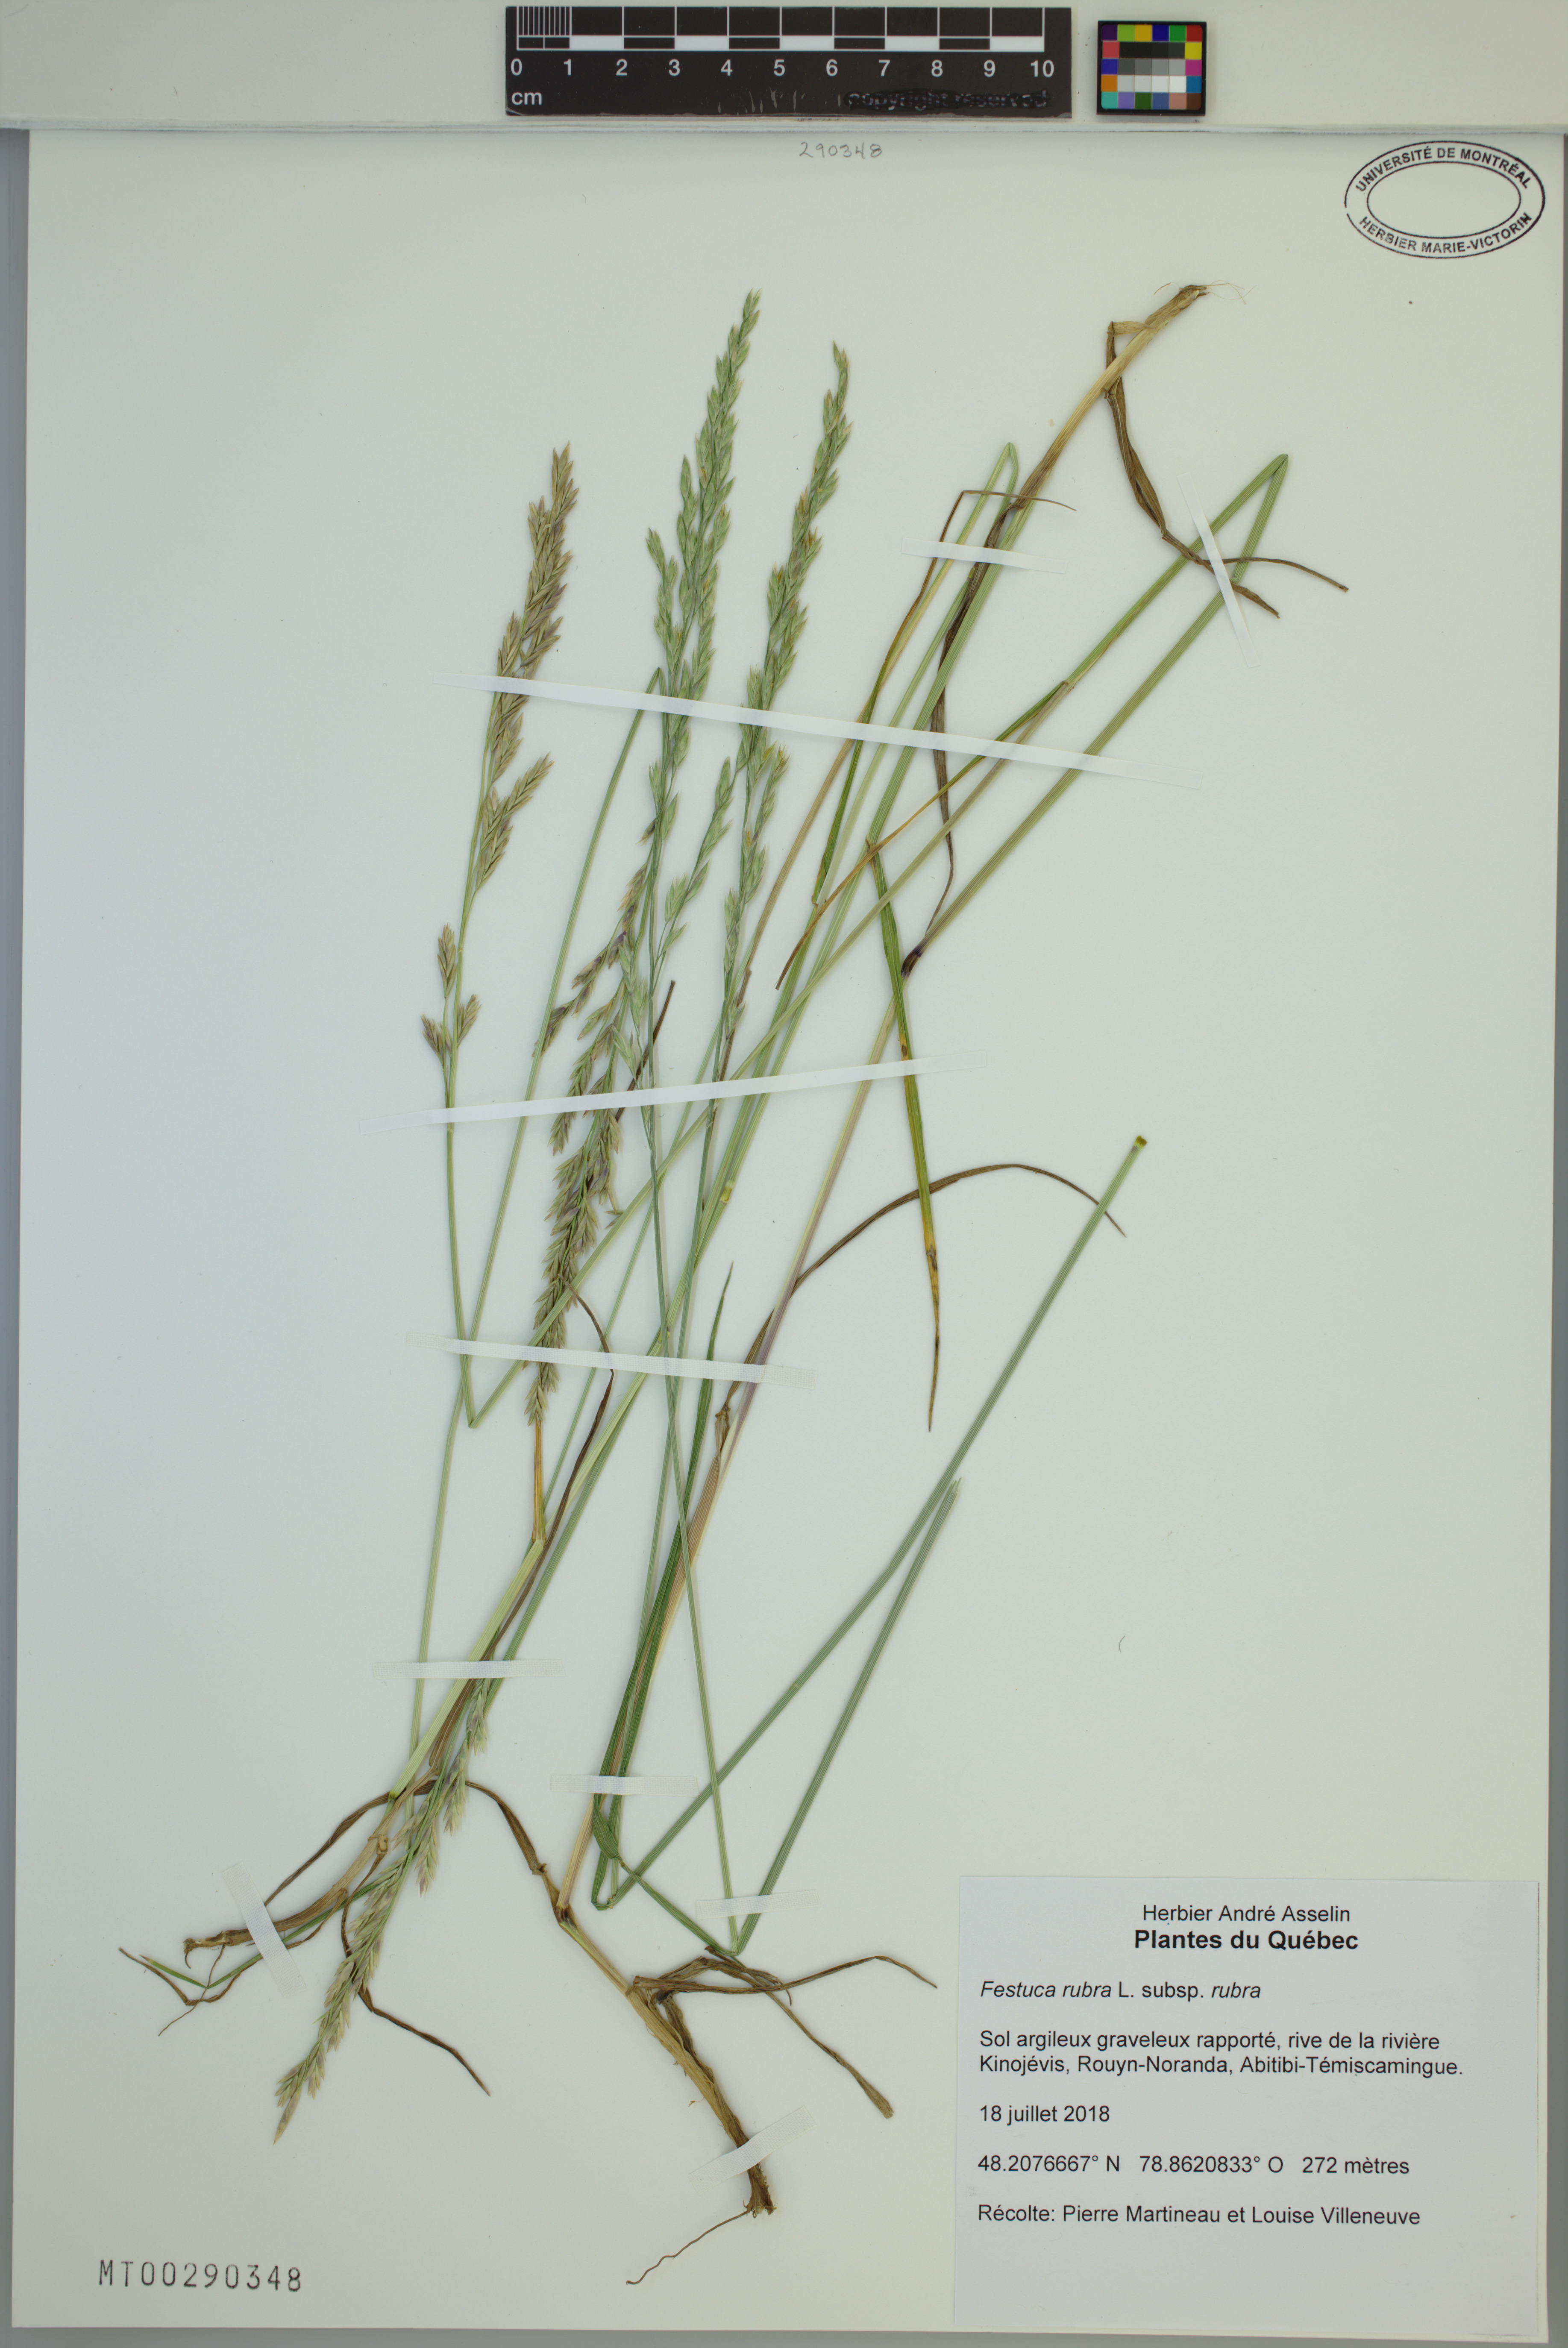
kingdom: Plantae
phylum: Tracheophyta
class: Liliopsida
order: Poales
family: Poaceae
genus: Festuca
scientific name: Festuca rubra
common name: Red fescue
